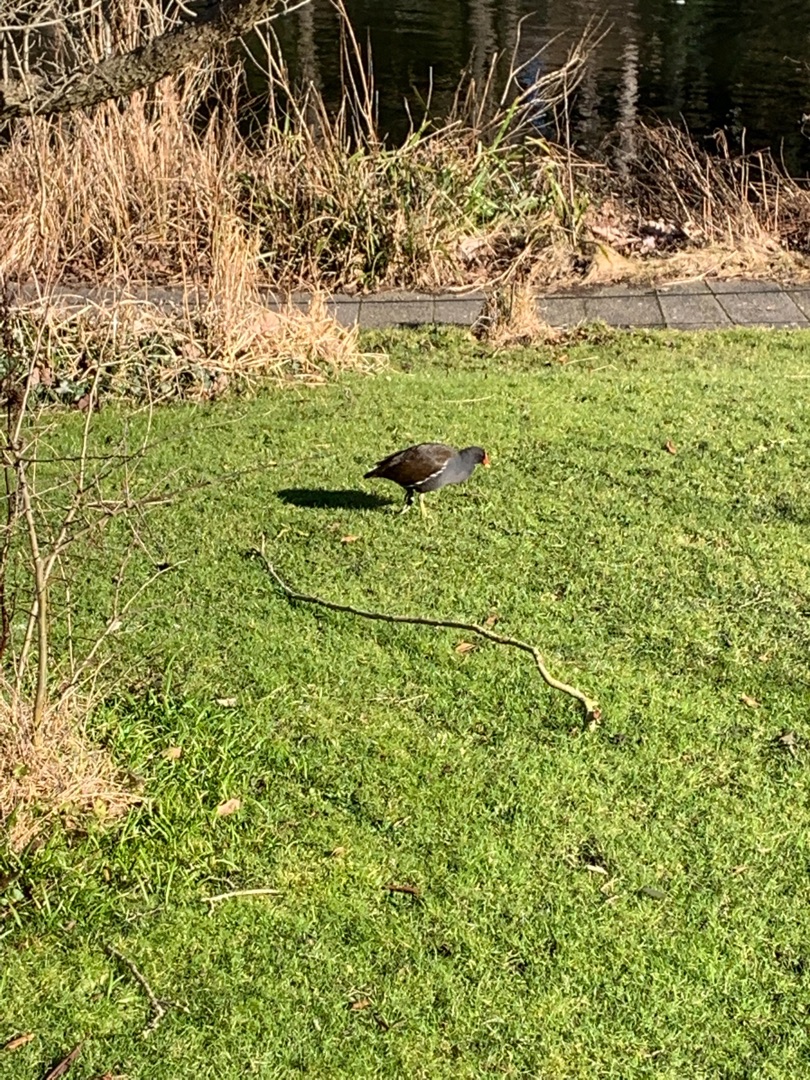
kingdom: Animalia
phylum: Chordata
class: Aves
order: Gruiformes
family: Rallidae
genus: Gallinula
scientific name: Gallinula chloropus
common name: Grønbenet rørhøne
